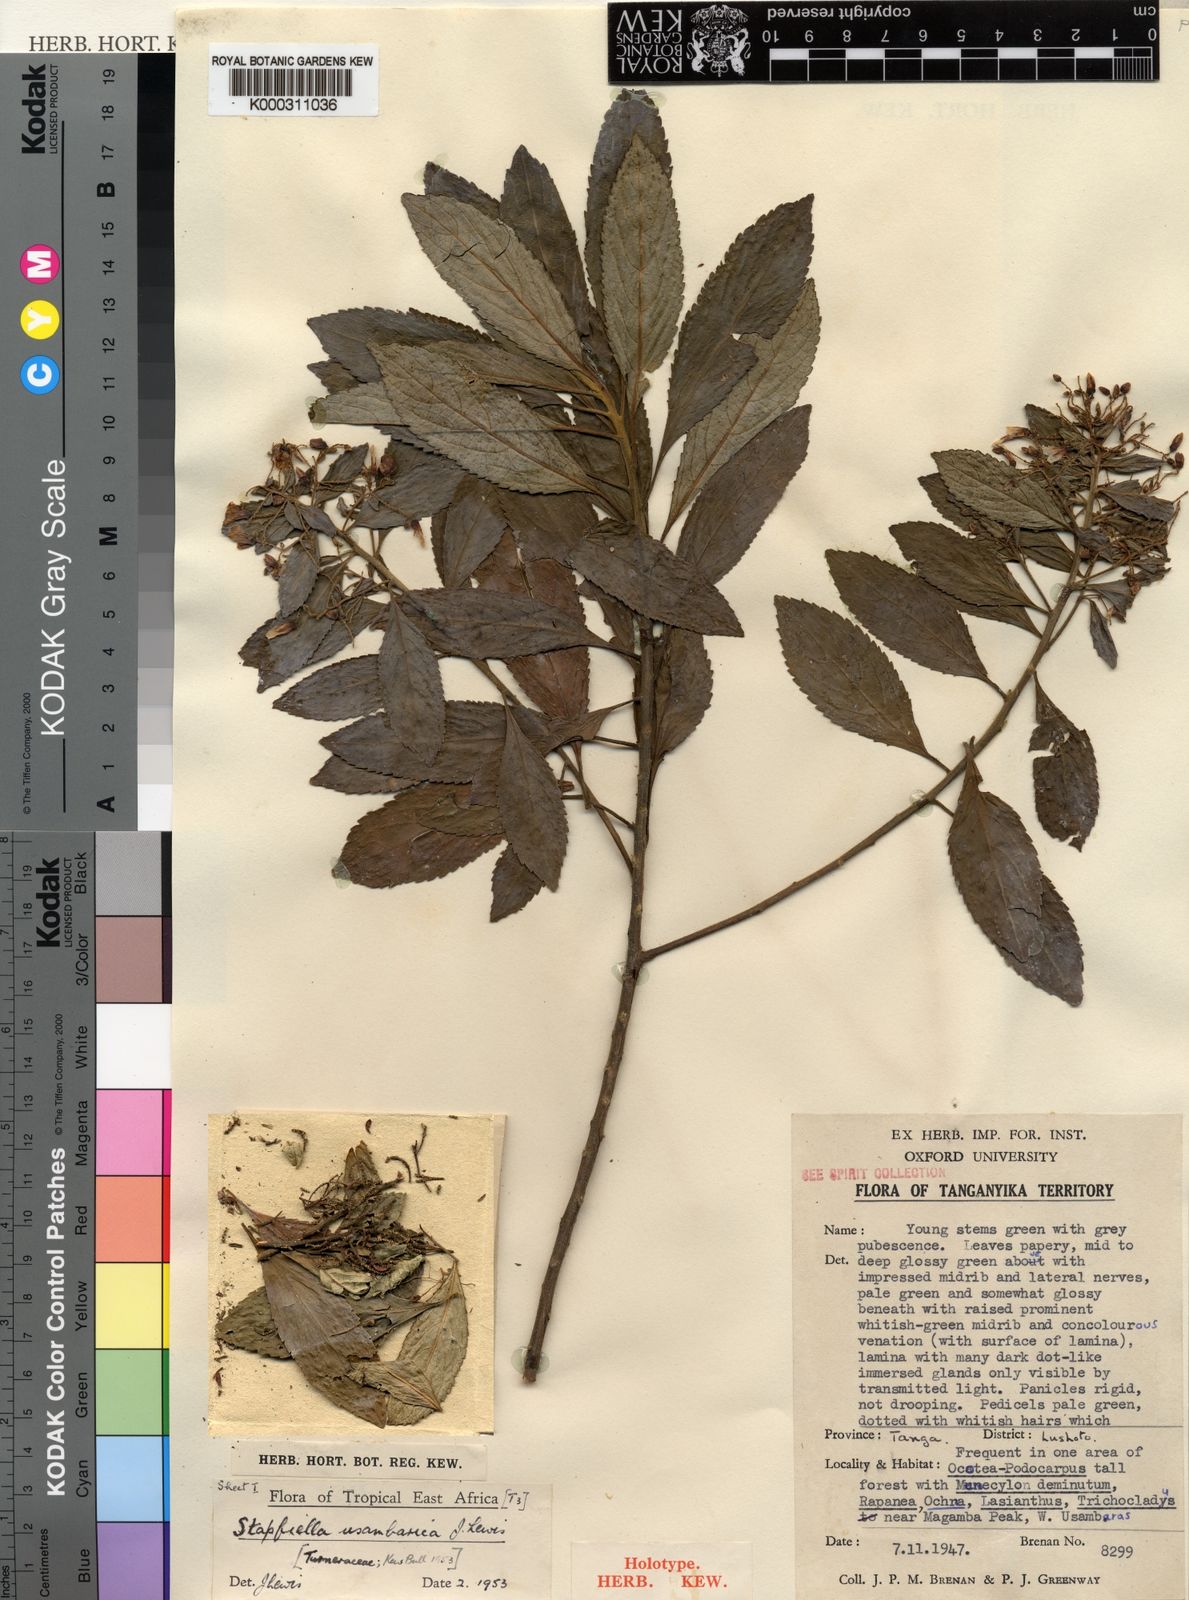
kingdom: Plantae
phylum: Tracheophyta
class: Magnoliopsida
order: Malpighiales
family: Turneraceae
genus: Stapfiella
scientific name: Stapfiella usambarica
